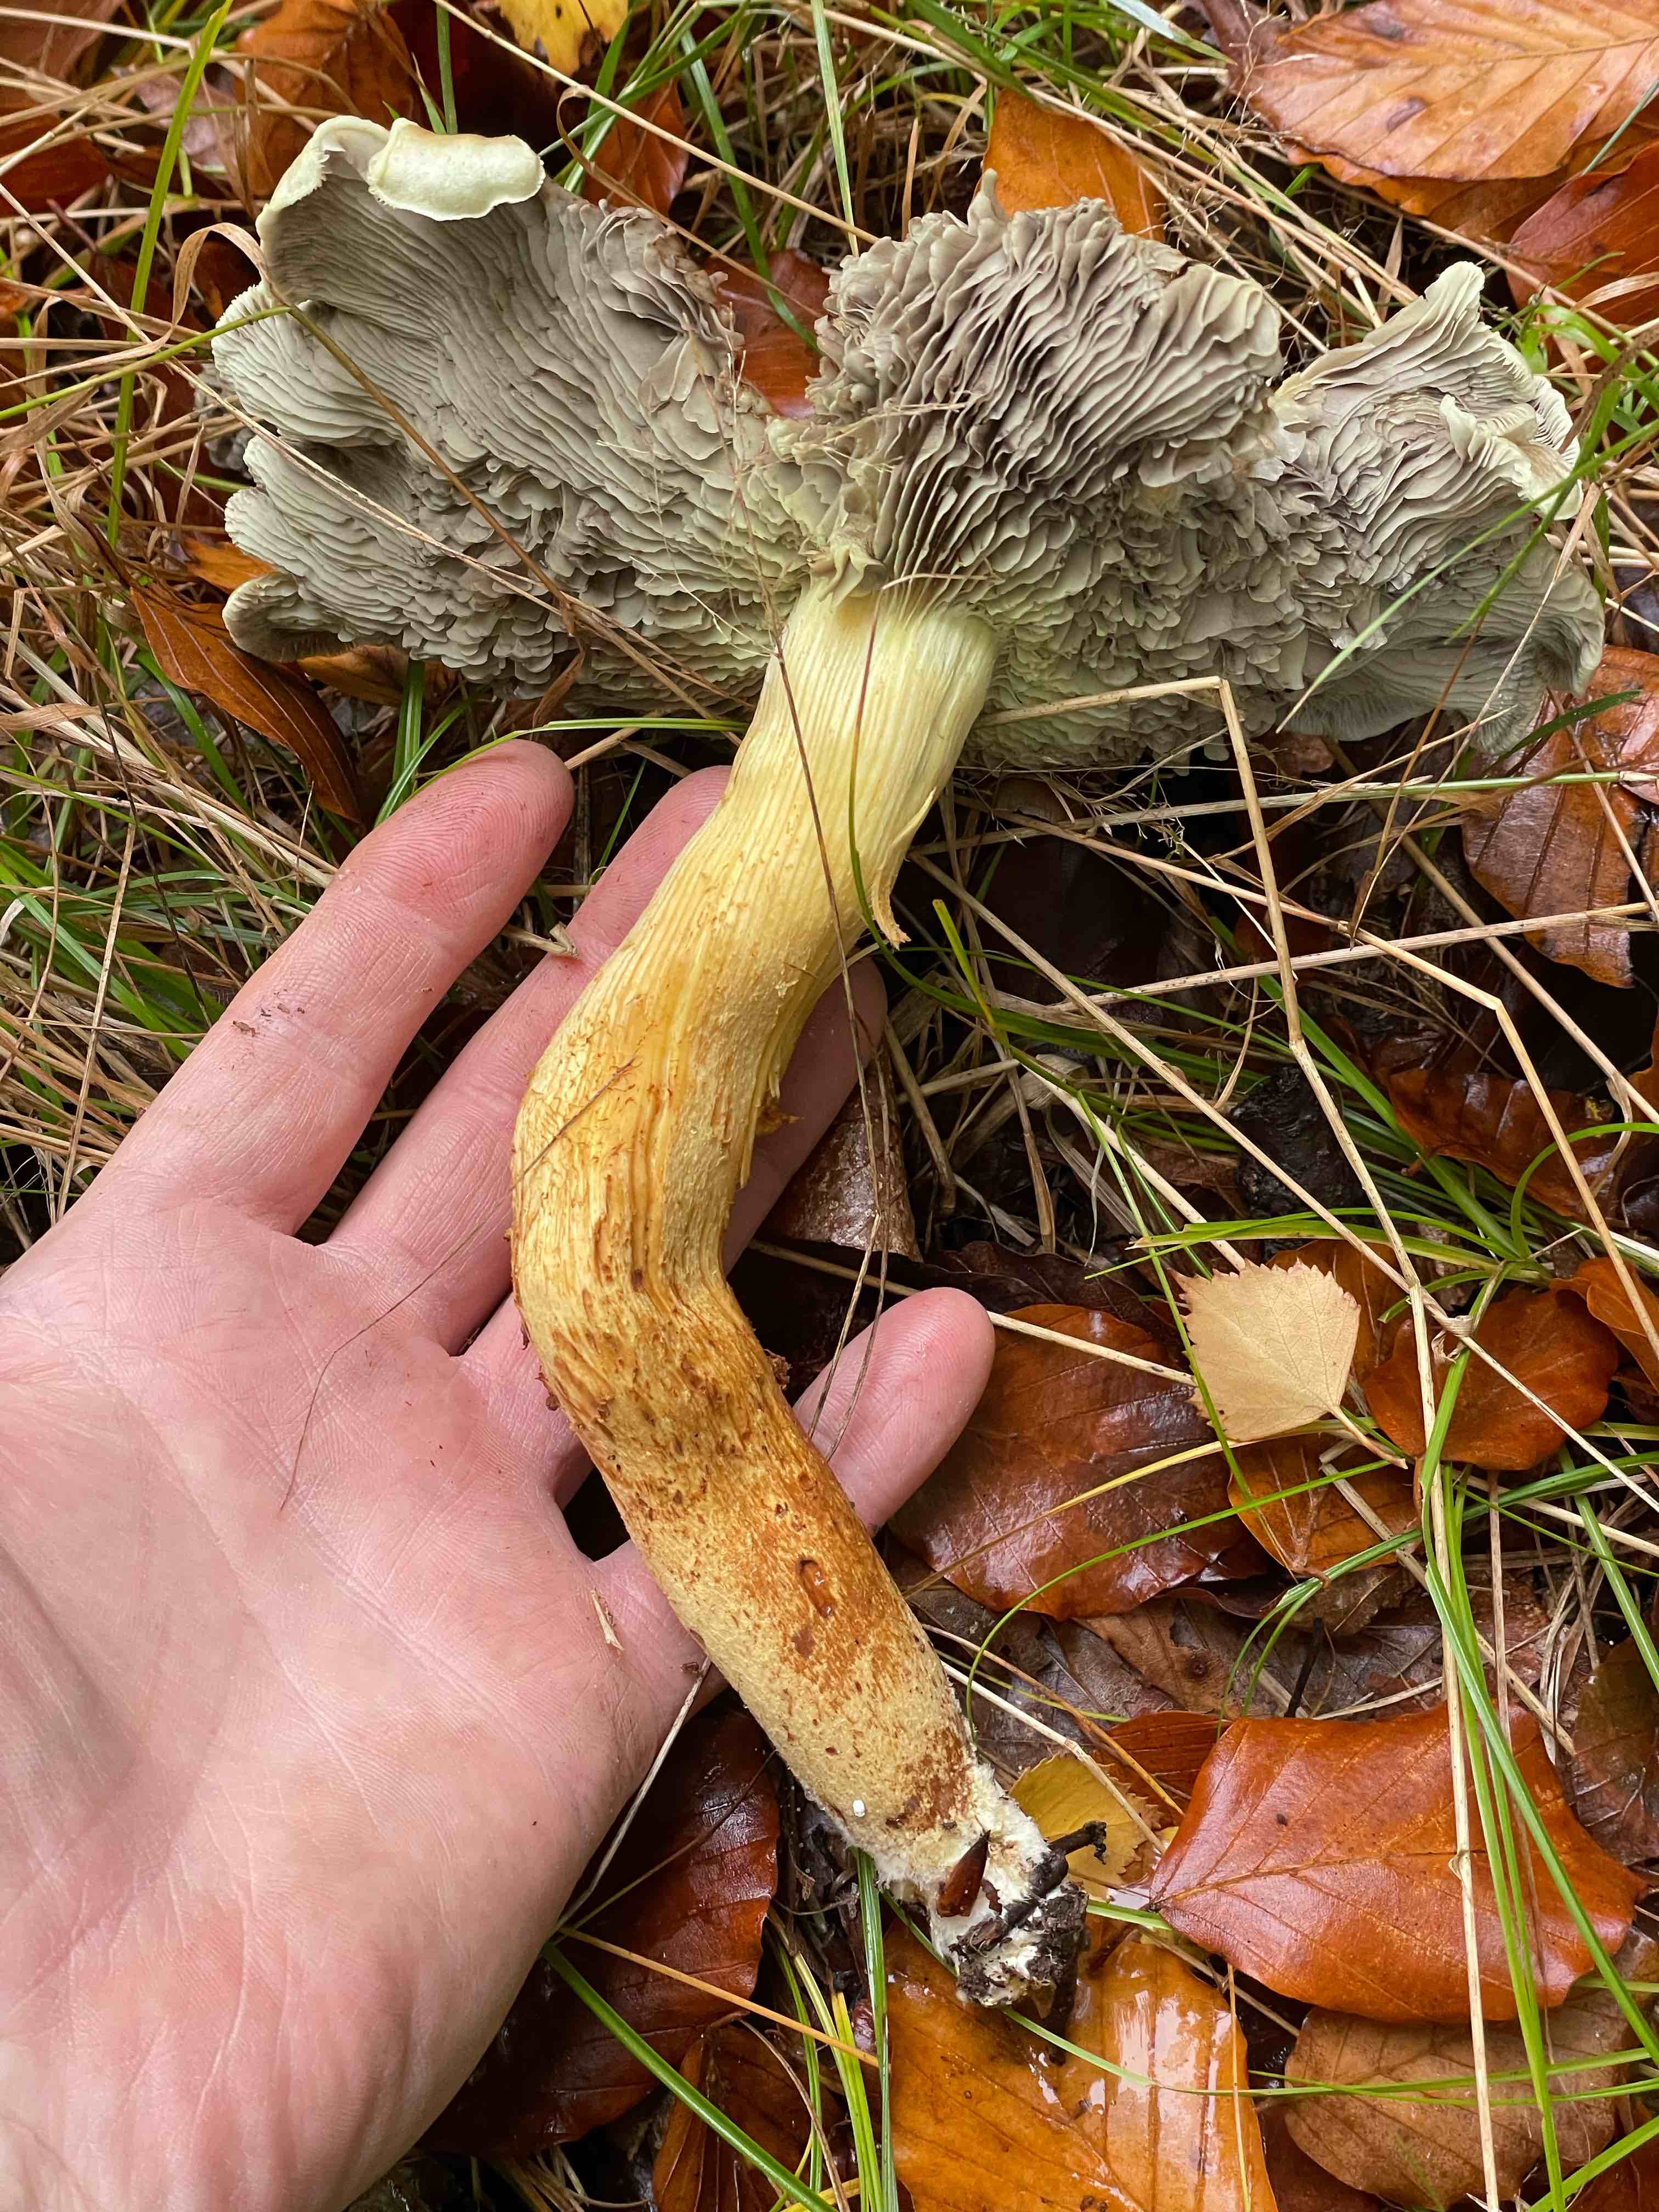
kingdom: Fungi
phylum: Basidiomycota
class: Agaricomycetes
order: Agaricales
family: Strophariaceae
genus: Hypholoma
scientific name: Hypholoma fasciculare
